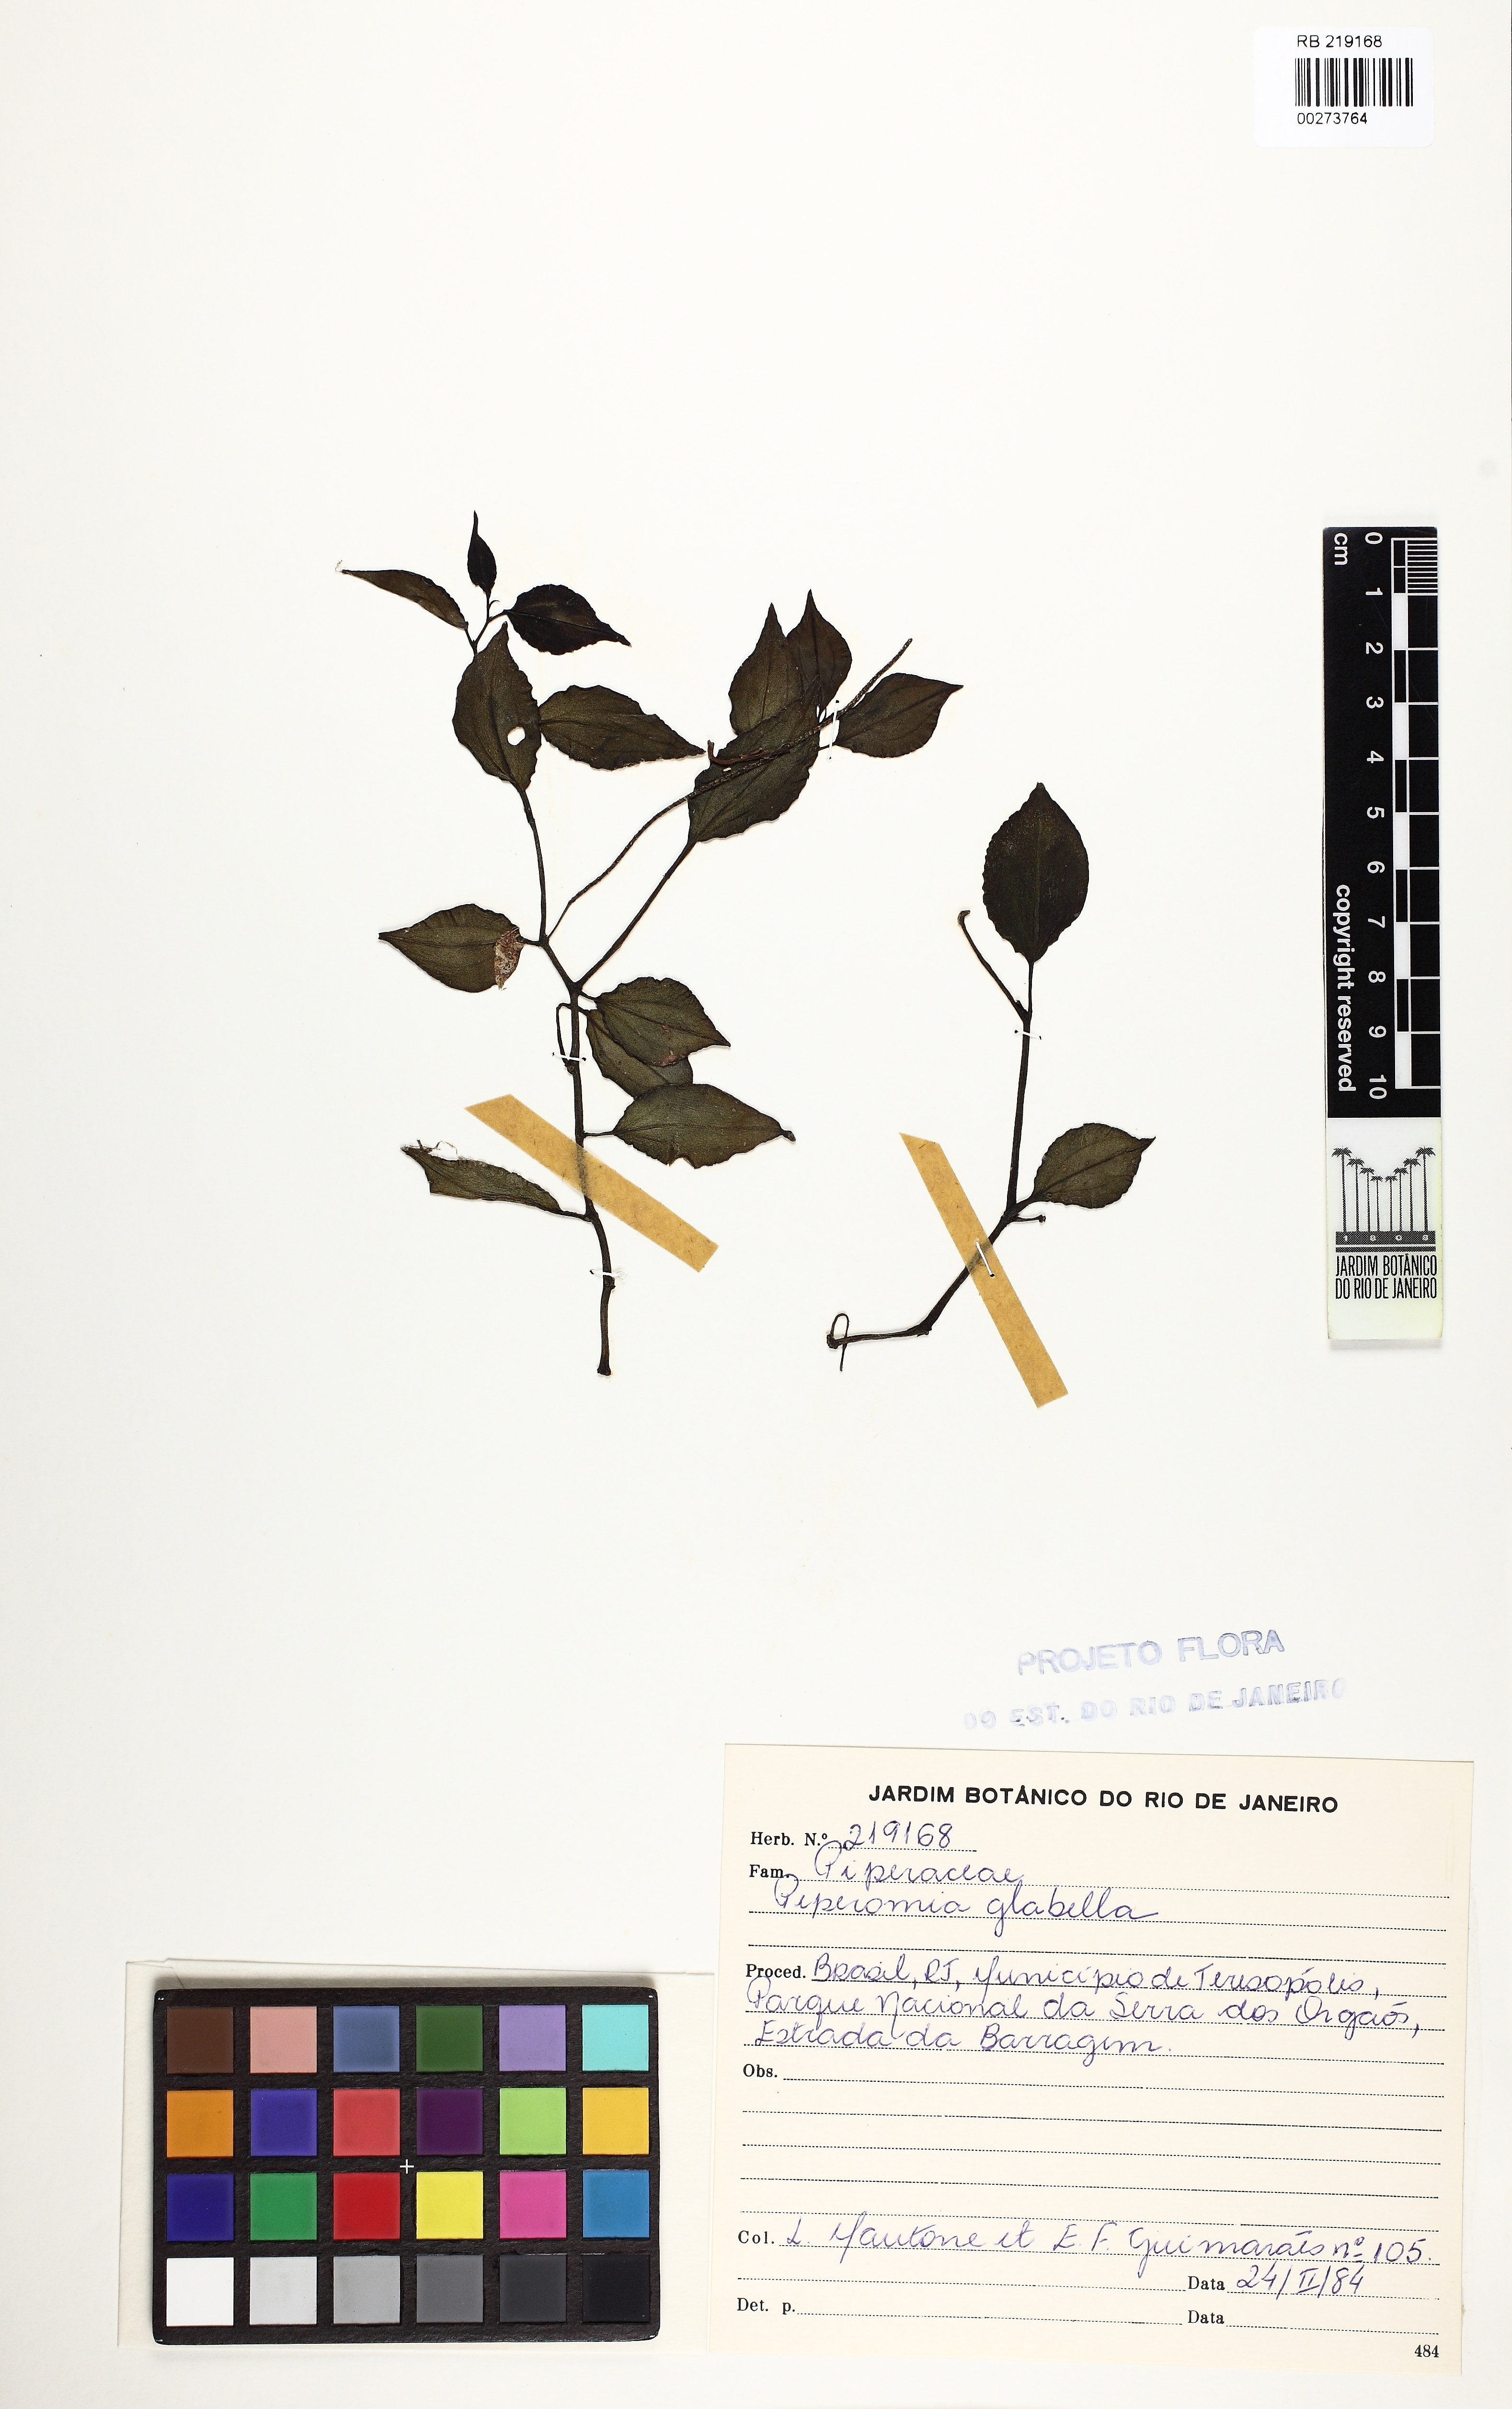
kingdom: Plantae
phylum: Tracheophyta
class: Magnoliopsida
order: Piperales
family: Piperaceae
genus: Peperomia
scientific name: Peperomia glabella
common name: Cypress peperomia
